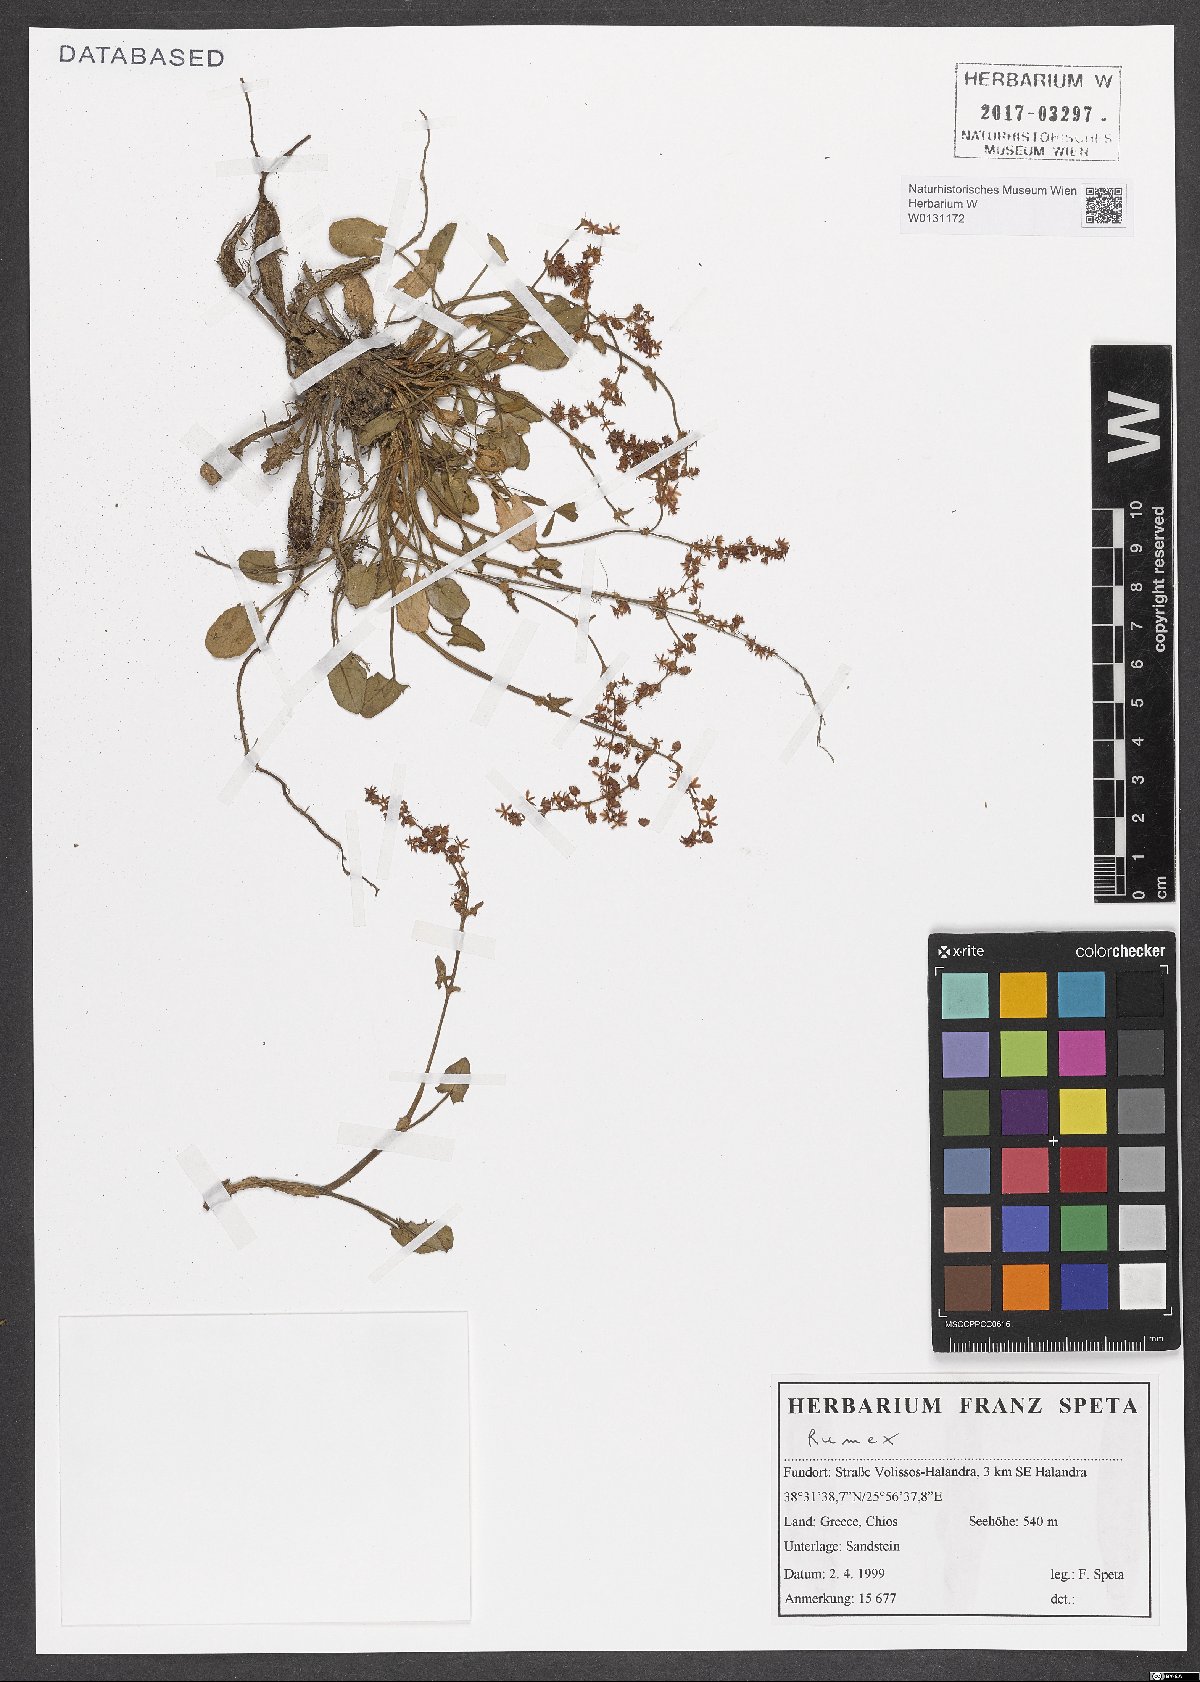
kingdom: Plantae
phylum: Tracheophyta
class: Magnoliopsida
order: Caryophyllales
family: Polygonaceae
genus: Rumex
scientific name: Rumex
